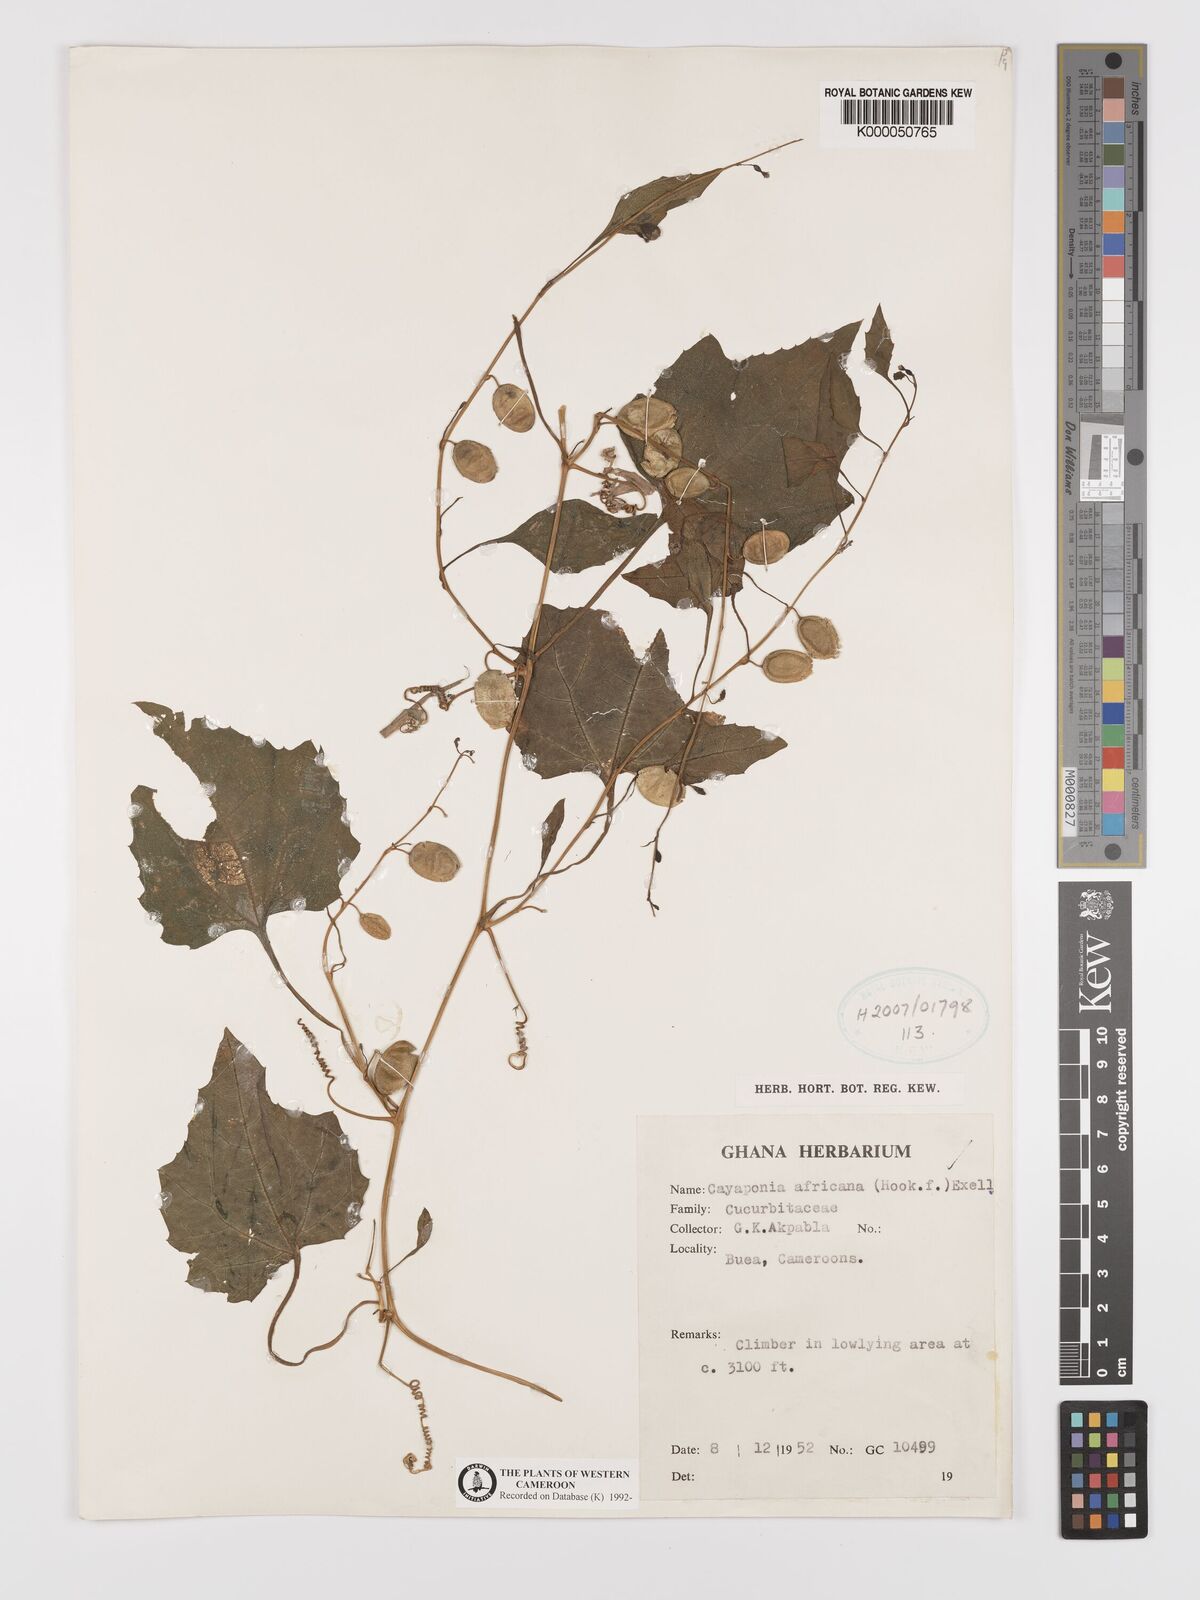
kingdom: Plantae
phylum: Tracheophyta
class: Magnoliopsida
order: Cucurbitales
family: Cucurbitaceae
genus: Cayaponia
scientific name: Cayaponia africana
